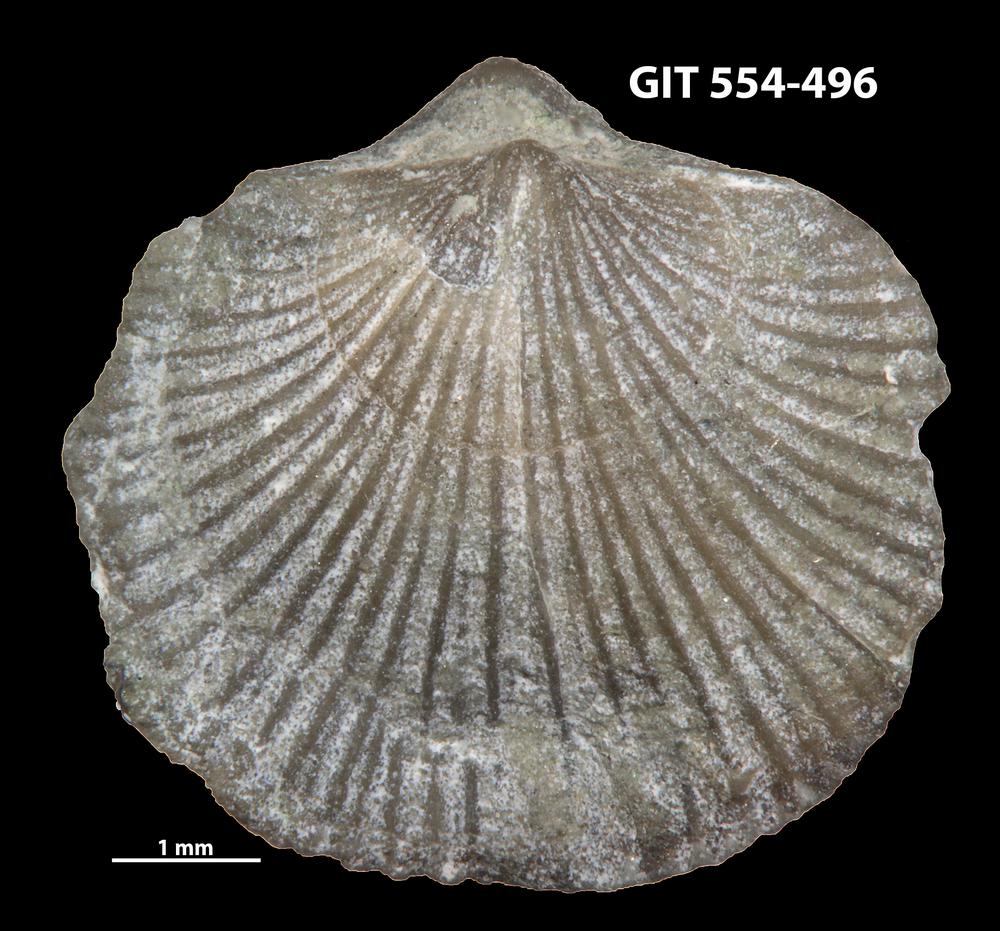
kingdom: Animalia
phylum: Brachiopoda
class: Rhynchonellata
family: Dalmanellidae
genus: Isorthis
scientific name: Isorthis parvulus
